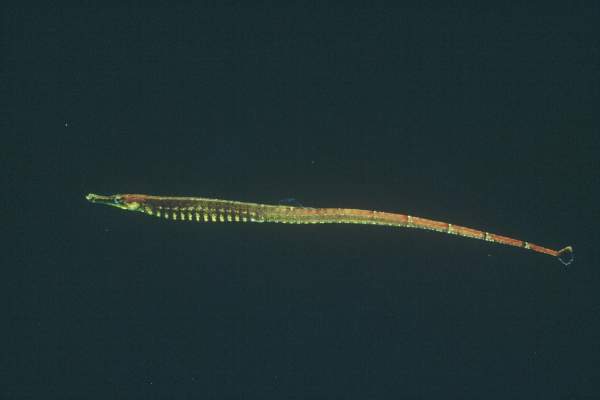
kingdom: Animalia
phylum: Chordata
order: Syngnathiformes
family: Syngnathidae
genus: Hippichthys
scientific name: Hippichthys spicifer
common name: Banded freshwater pipefish
